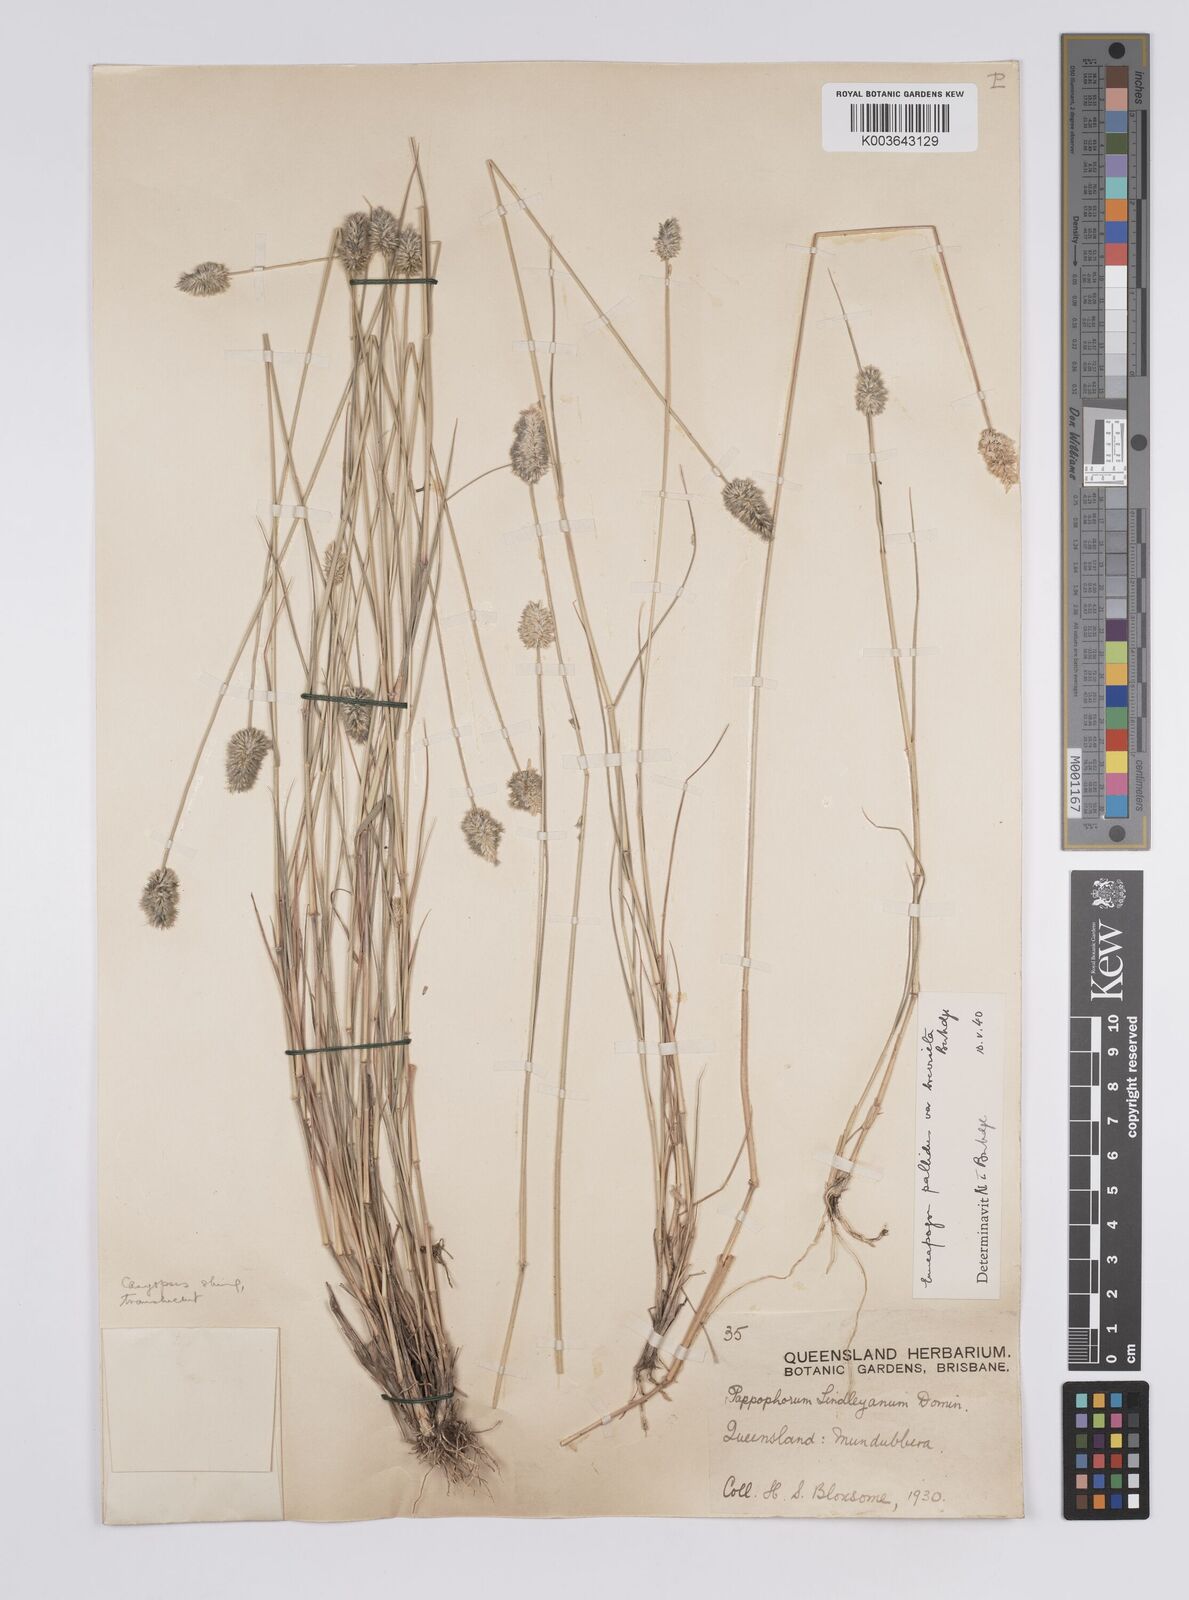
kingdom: Plantae
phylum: Tracheophyta
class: Liliopsida
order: Poales
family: Poaceae
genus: Enneapogon
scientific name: Enneapogon lindleyanus
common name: Conetop nineawn
